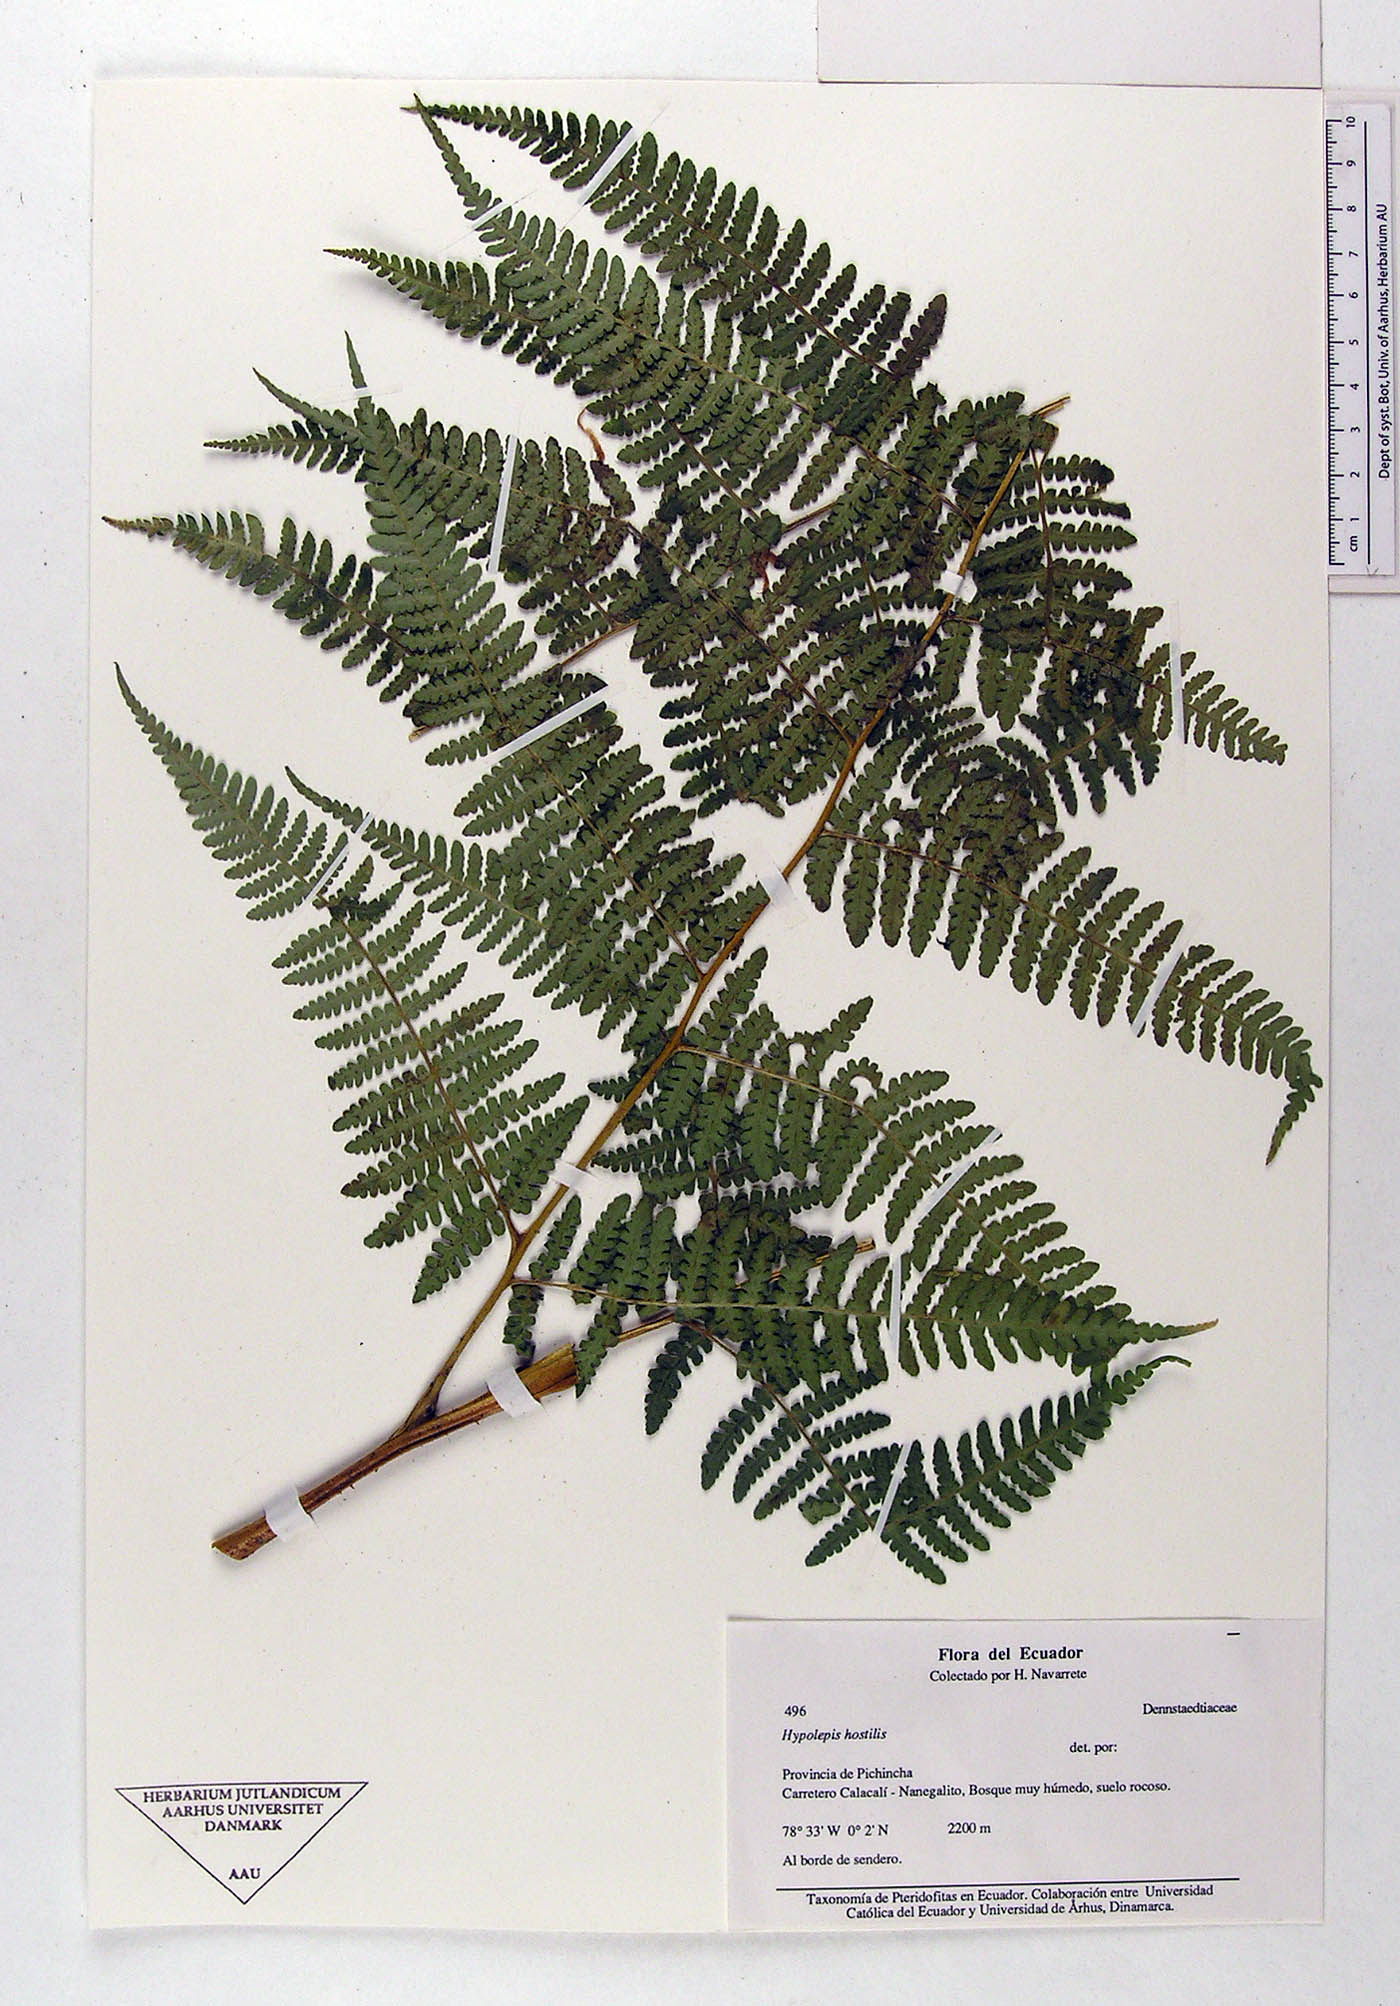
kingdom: Plantae
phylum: Tracheophyta
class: Polypodiopsida
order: Polypodiales
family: Dennstaedtiaceae
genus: Hypolepis
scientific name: Hypolepis hostilis
